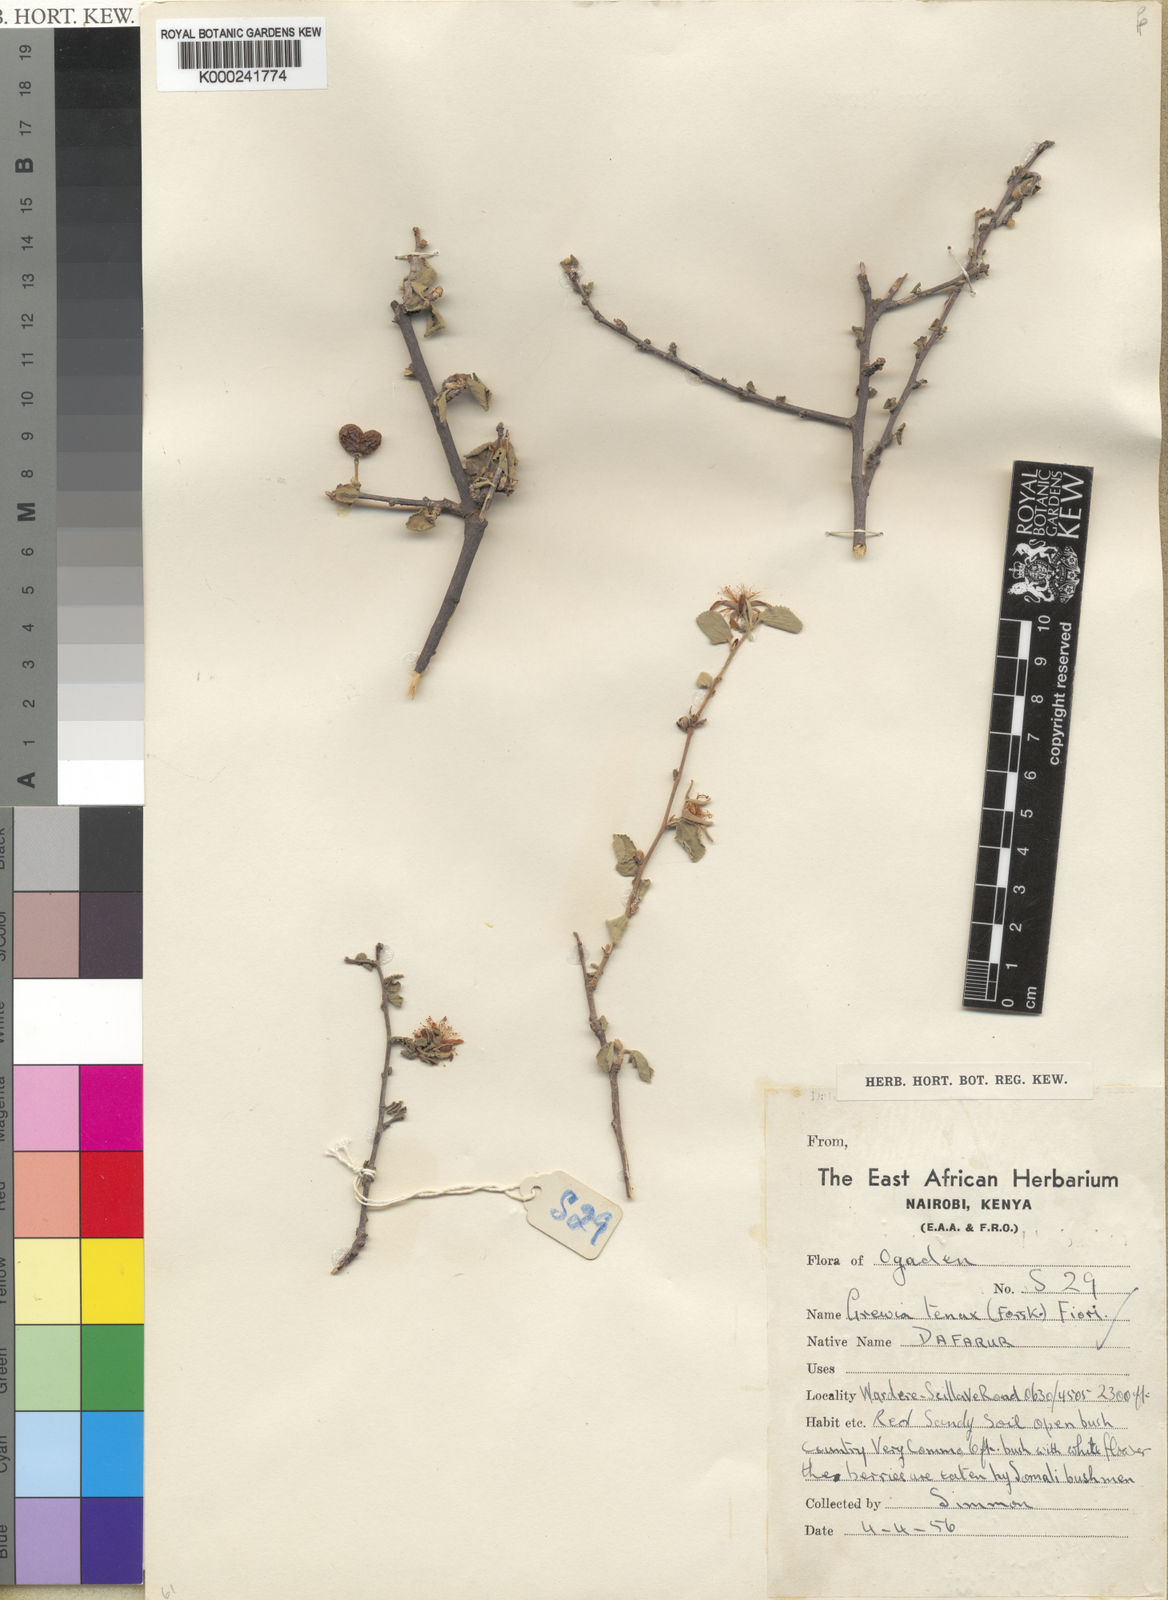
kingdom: Plantae
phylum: Tracheophyta
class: Magnoliopsida
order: Malvales
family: Malvaceae
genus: Grewia
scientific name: Grewia tenax
